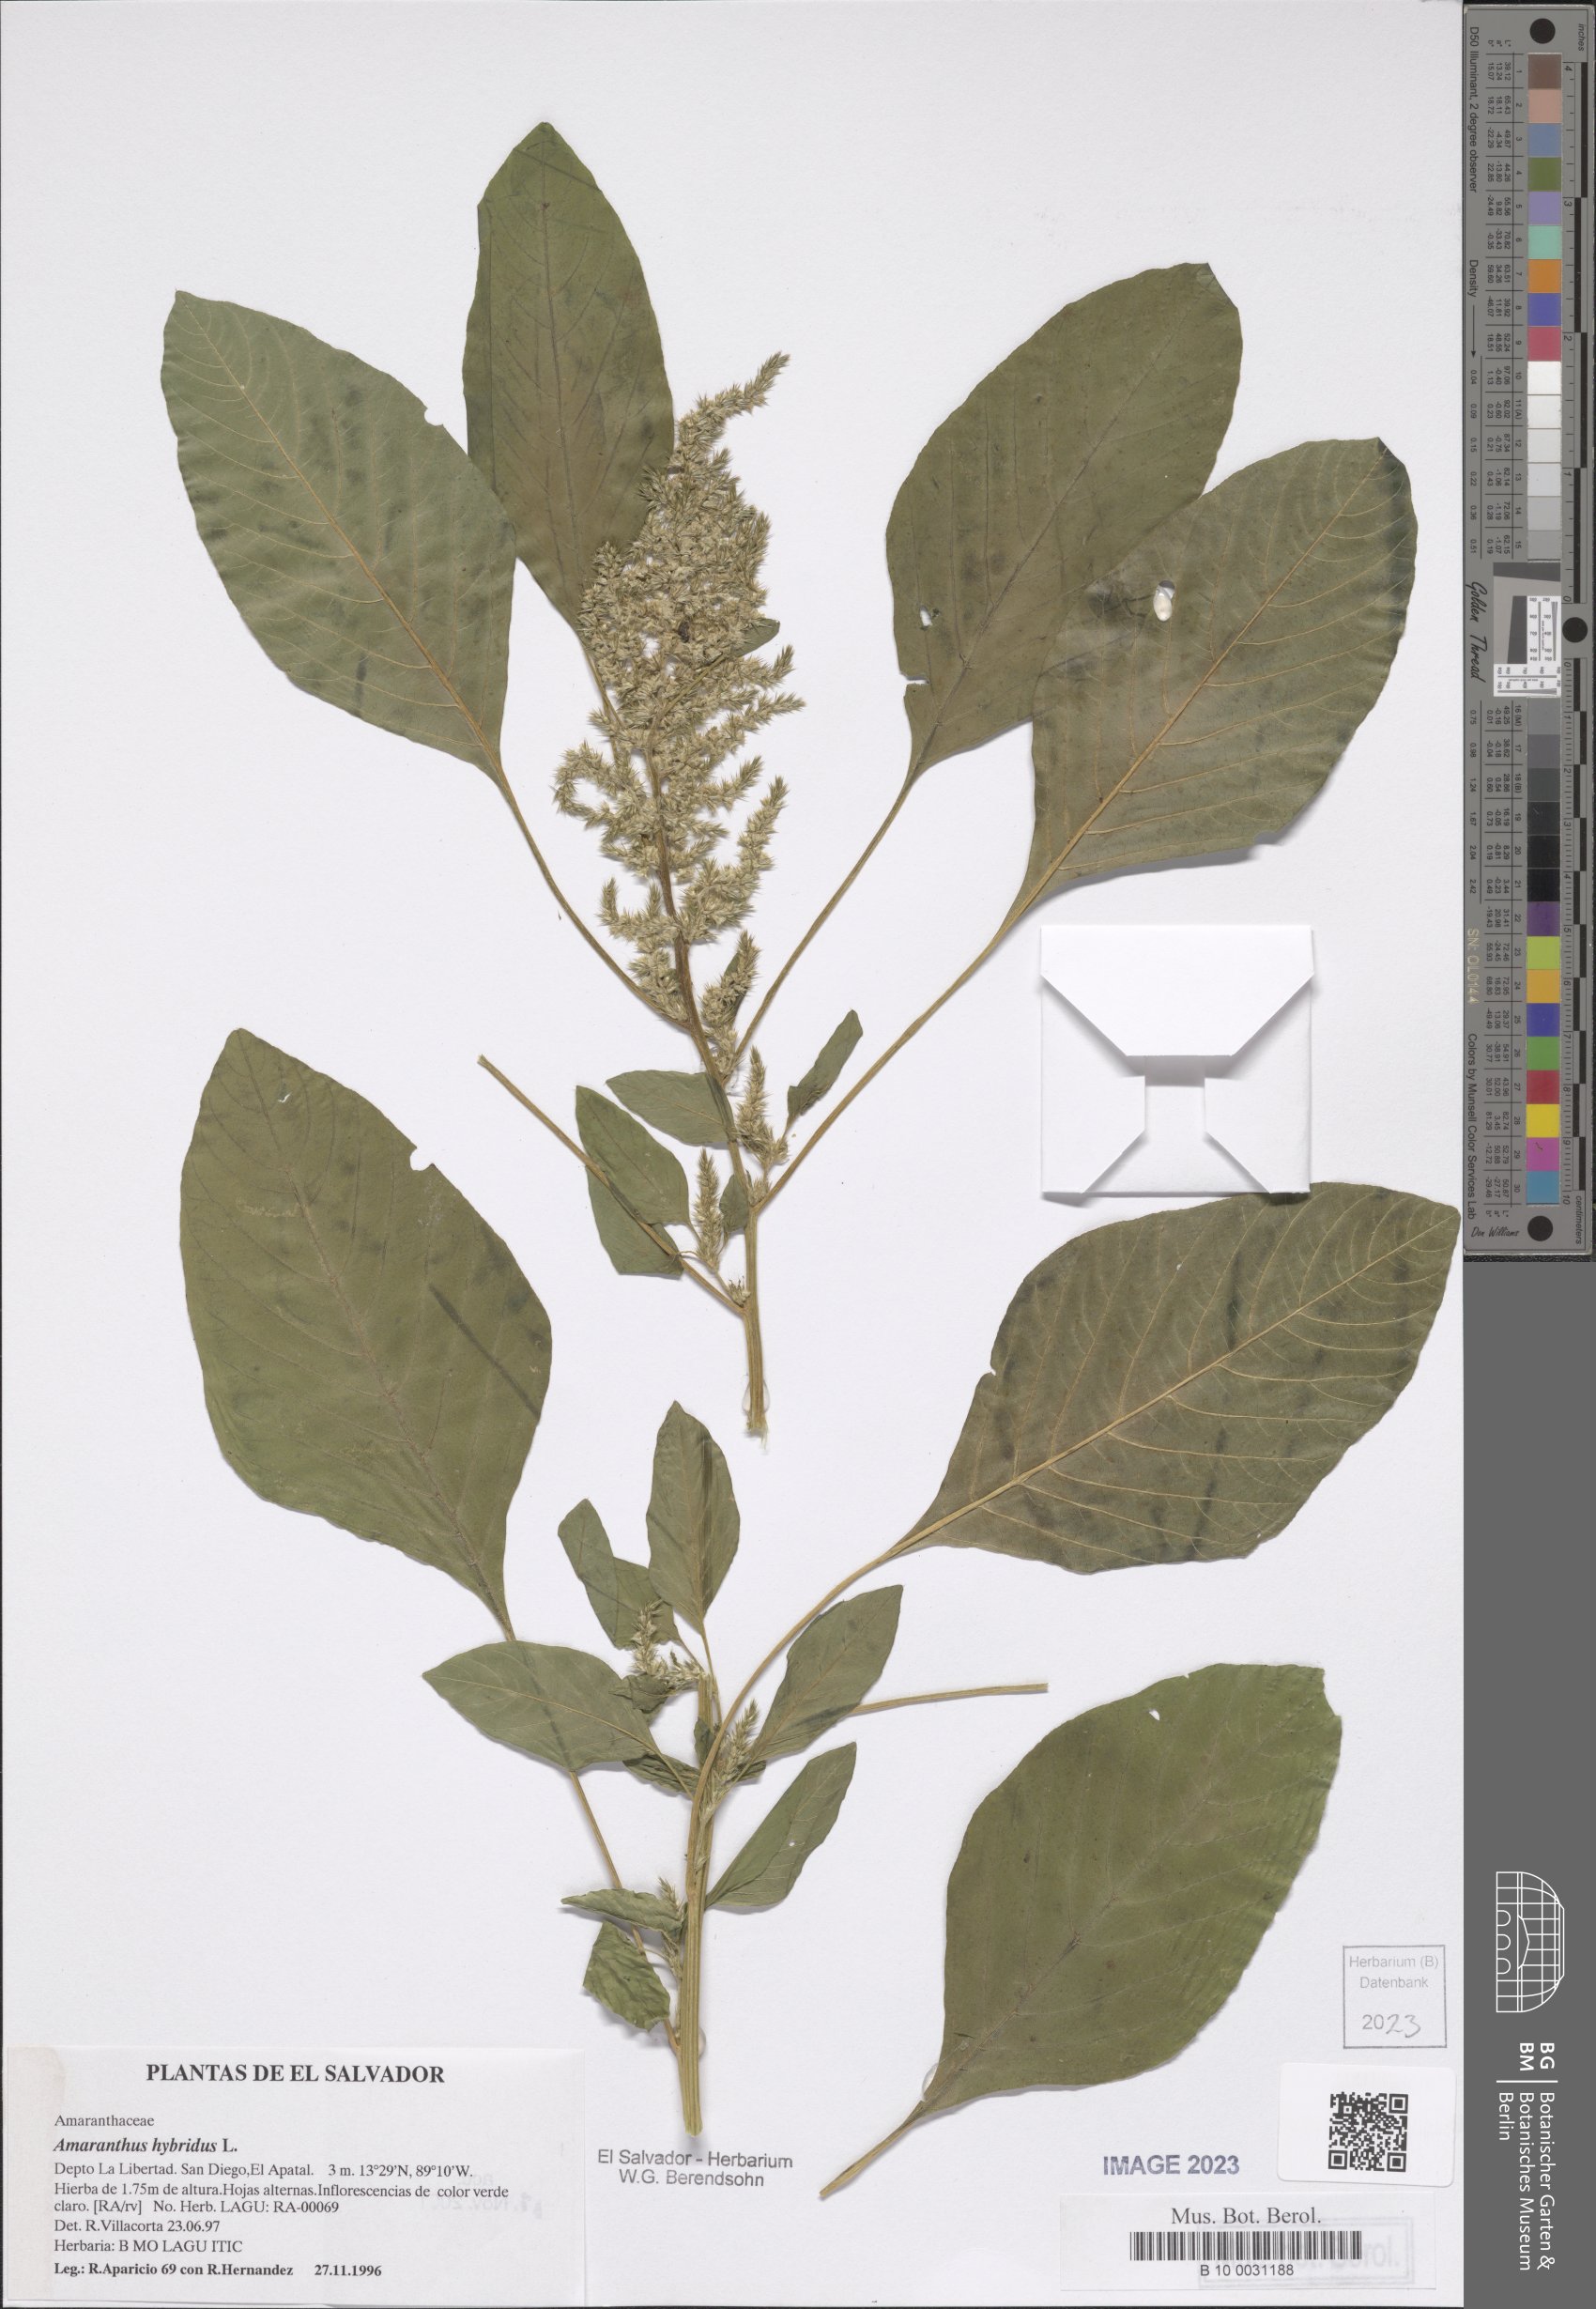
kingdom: Plantae
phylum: Tracheophyta
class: Magnoliopsida
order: Caryophyllales
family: Amaranthaceae
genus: Amaranthus
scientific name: Amaranthus hybridus
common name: Green amaranth
